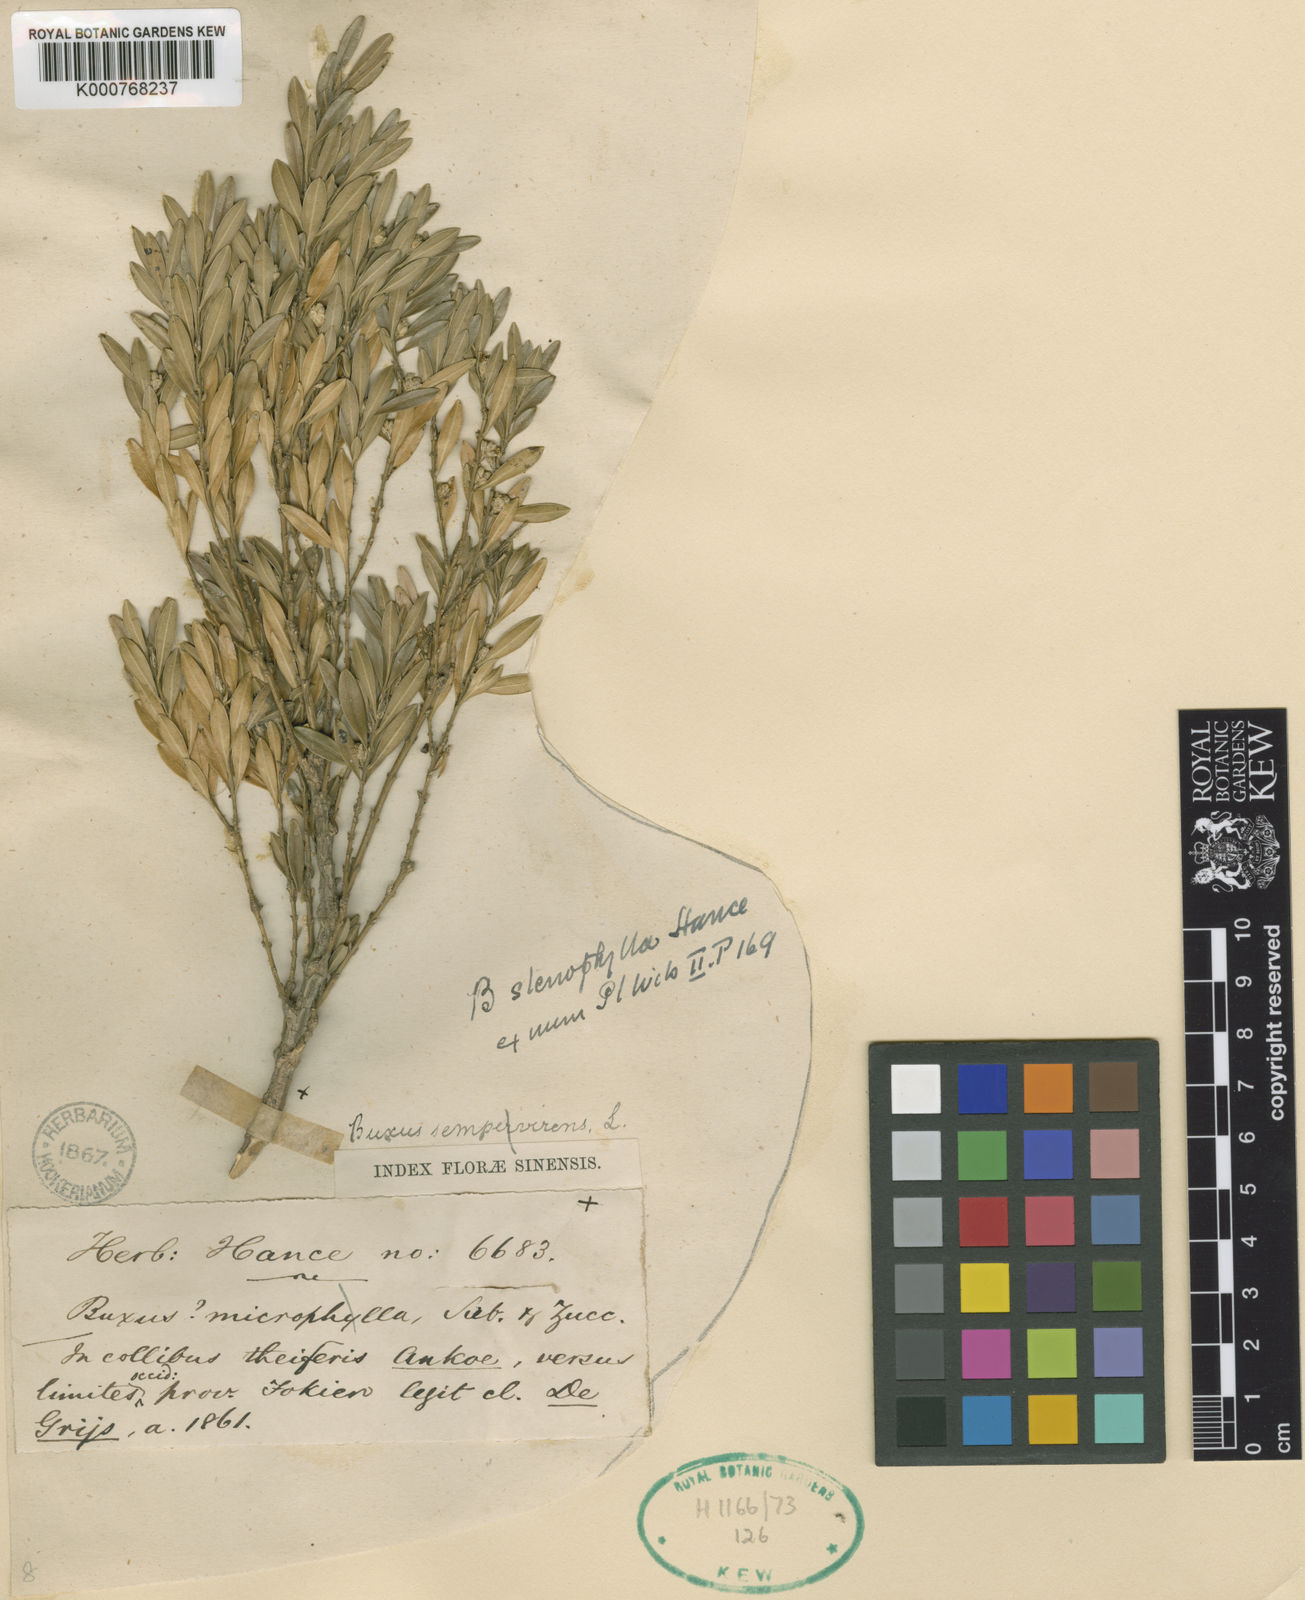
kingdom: Plantae
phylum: Tracheophyta
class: Magnoliopsida
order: Buxales
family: Buxaceae
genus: Buxus
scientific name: Buxus stenophylla
